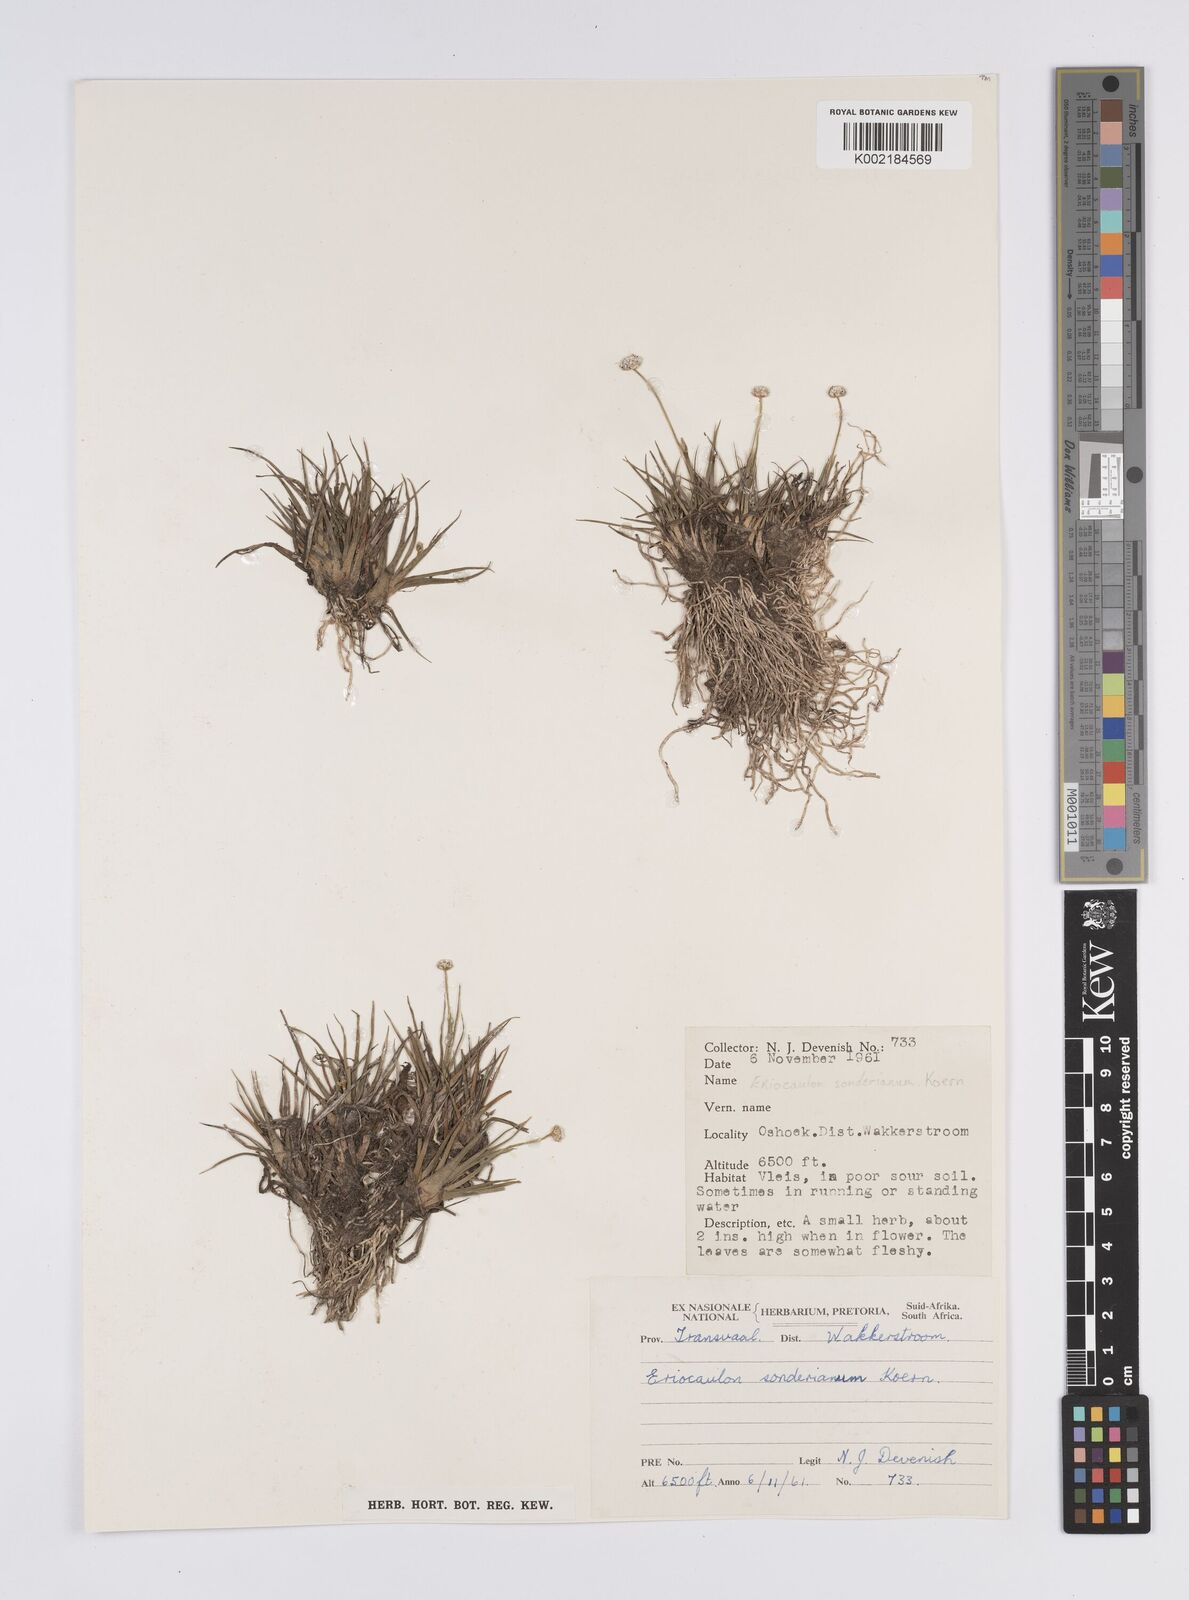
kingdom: Plantae
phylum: Tracheophyta
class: Liliopsida
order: Poales
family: Eriocaulaceae
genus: Eriocaulon
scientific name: Eriocaulon sonderianum
